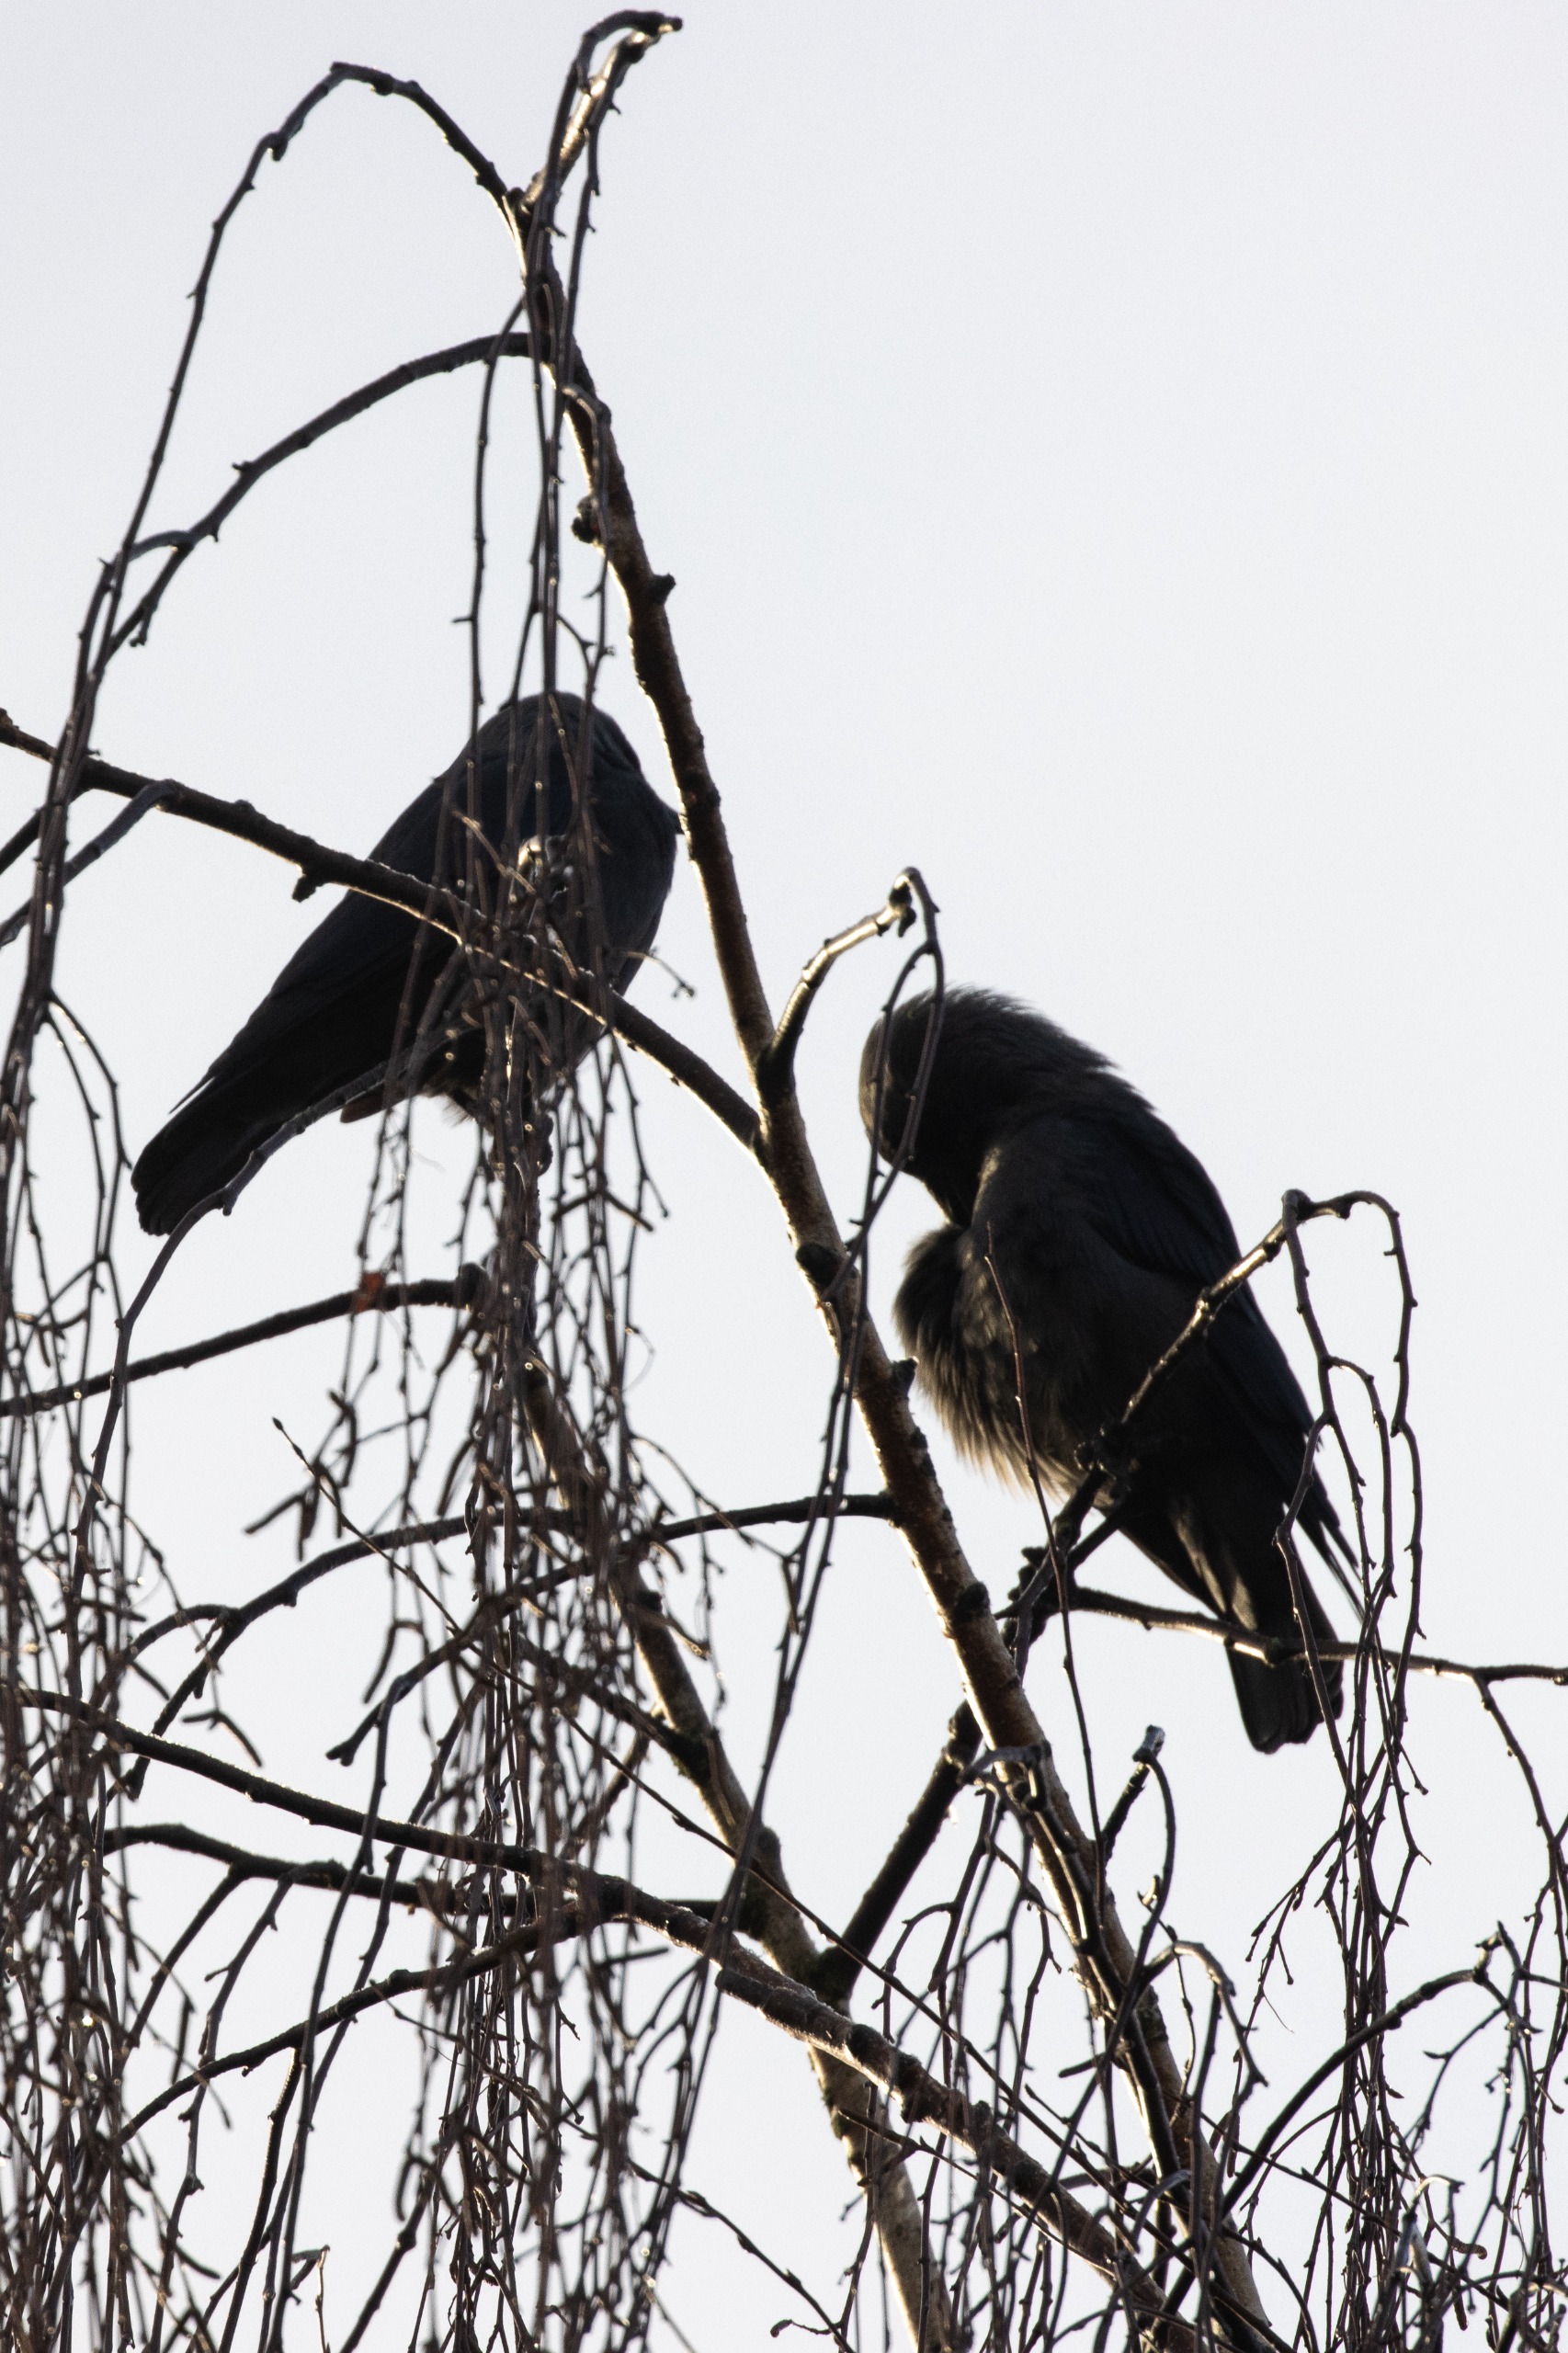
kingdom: Animalia
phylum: Chordata
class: Aves
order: Passeriformes
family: Corvidae
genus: Coloeus
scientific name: Coloeus monedula
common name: Almindelig allike
